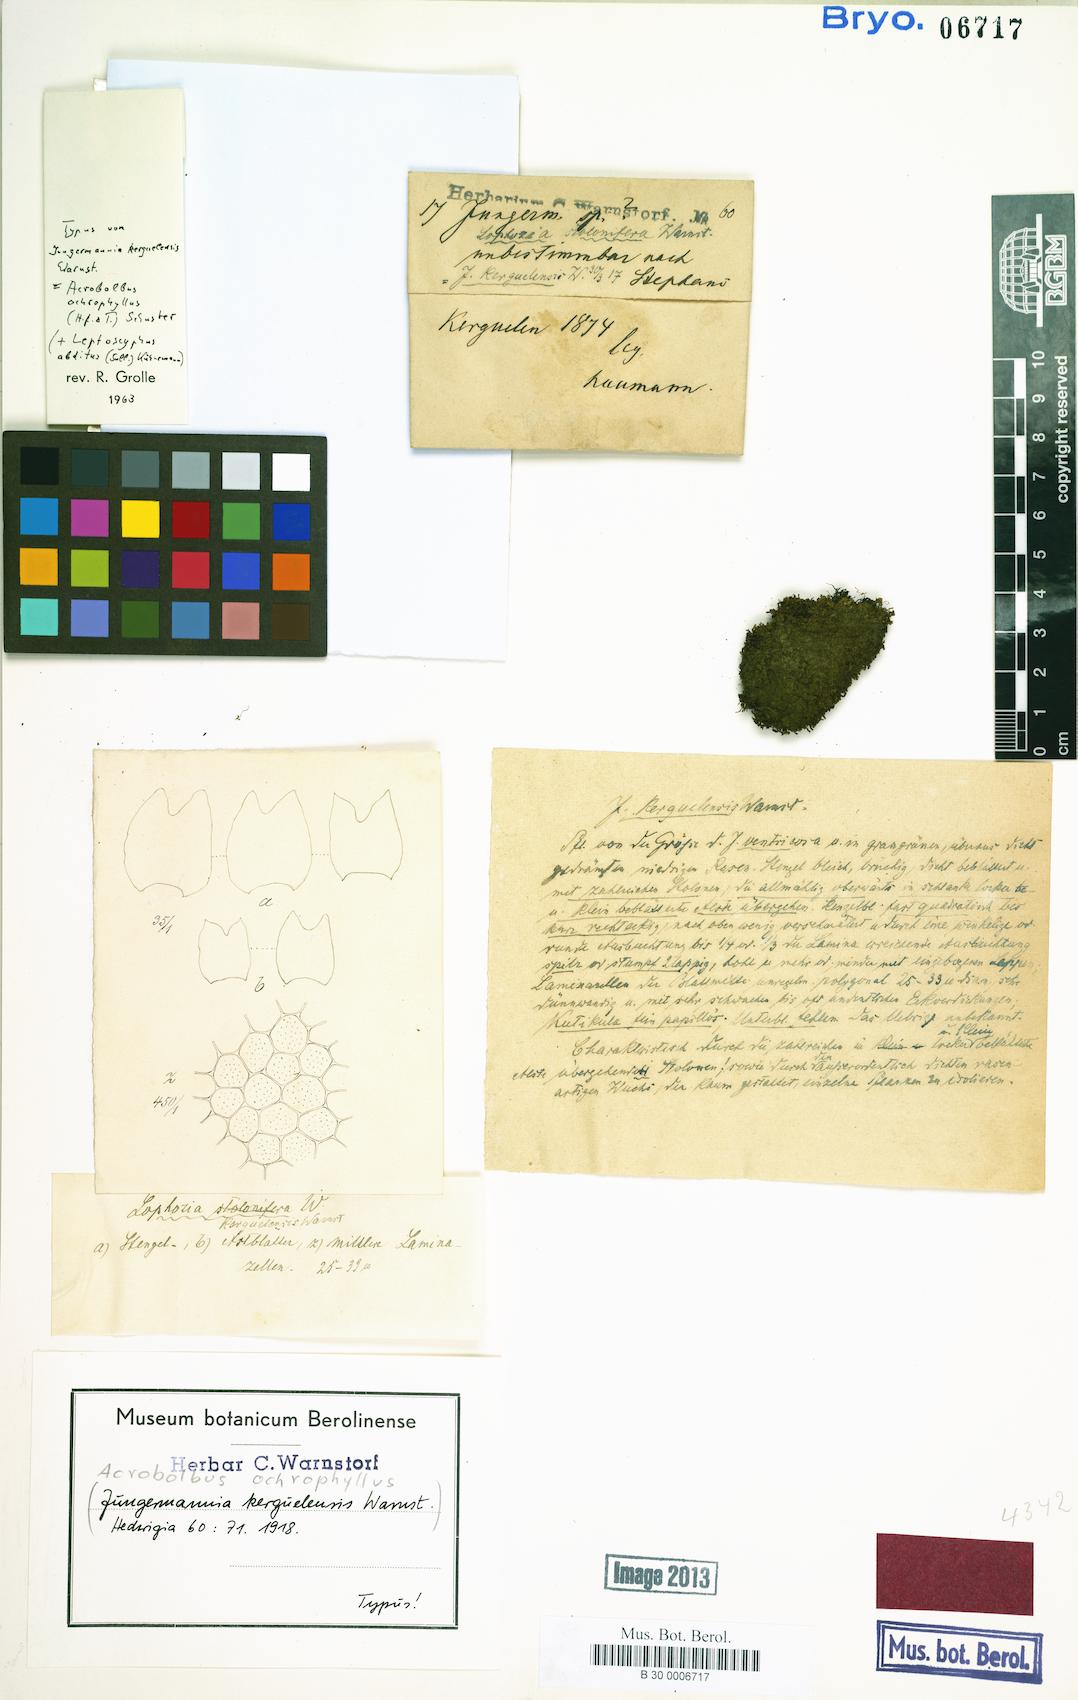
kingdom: Plantae
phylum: Marchantiophyta
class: Jungermanniopsida
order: Jungermanniales
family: Acrobolbaceae
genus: Acrobolbus
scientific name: Acrobolbus ochrophyllus
